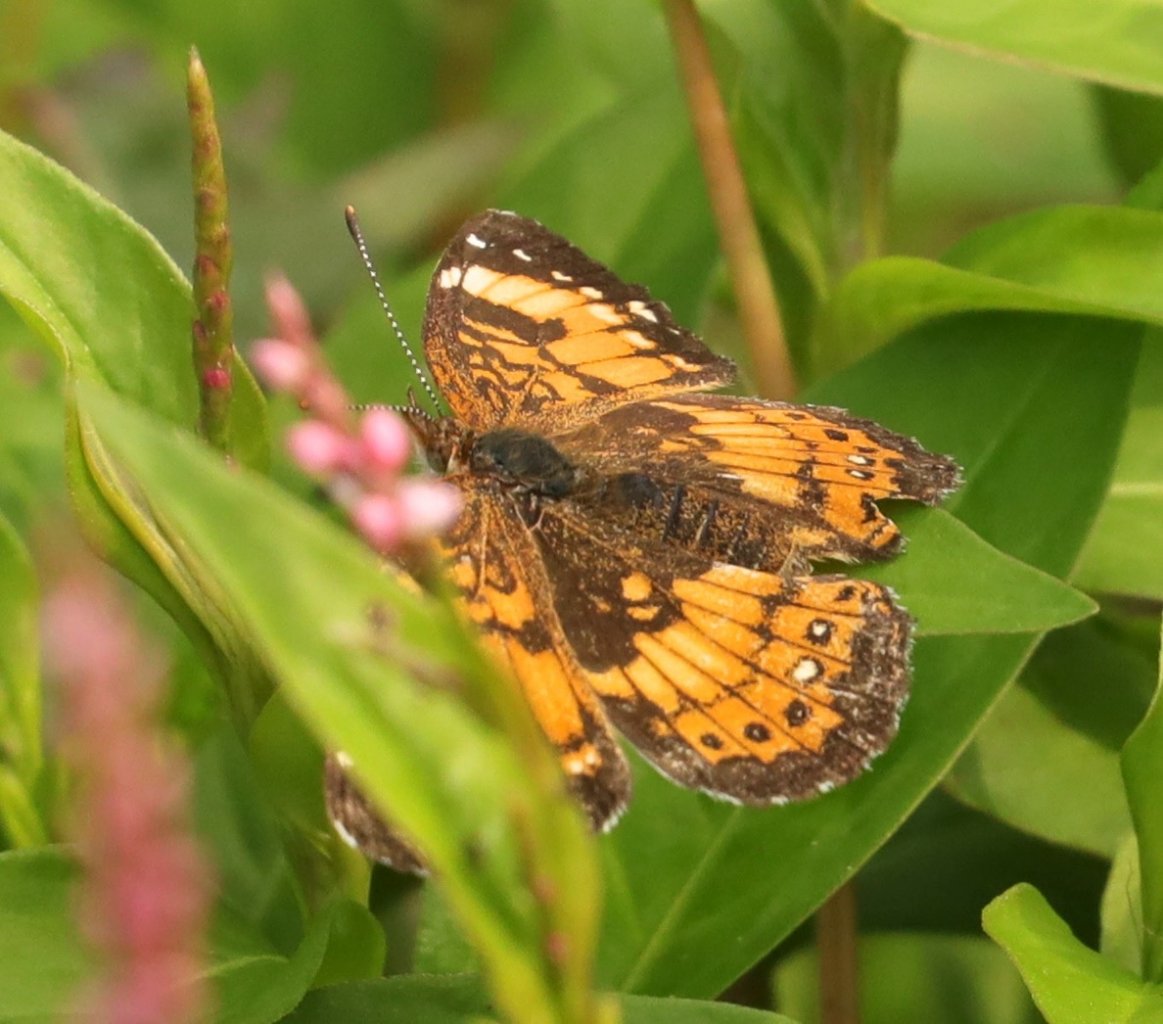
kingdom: Animalia
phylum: Arthropoda
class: Insecta
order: Lepidoptera
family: Nymphalidae
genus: Chlosyne
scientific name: Chlosyne nycteis
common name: Silvery Checkerspot
